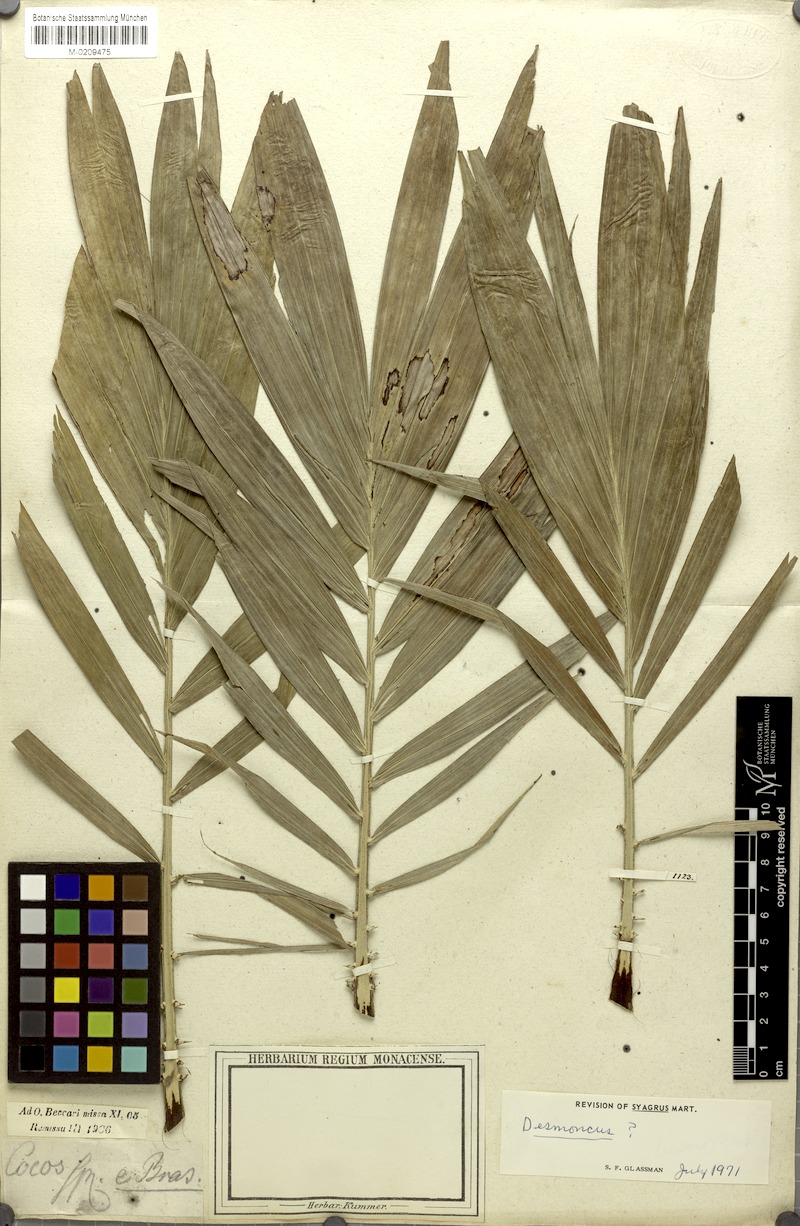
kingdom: Plantae
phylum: Tracheophyta
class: Liliopsida
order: Arecales
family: Arecaceae
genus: Syagrus
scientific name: Syagrus
